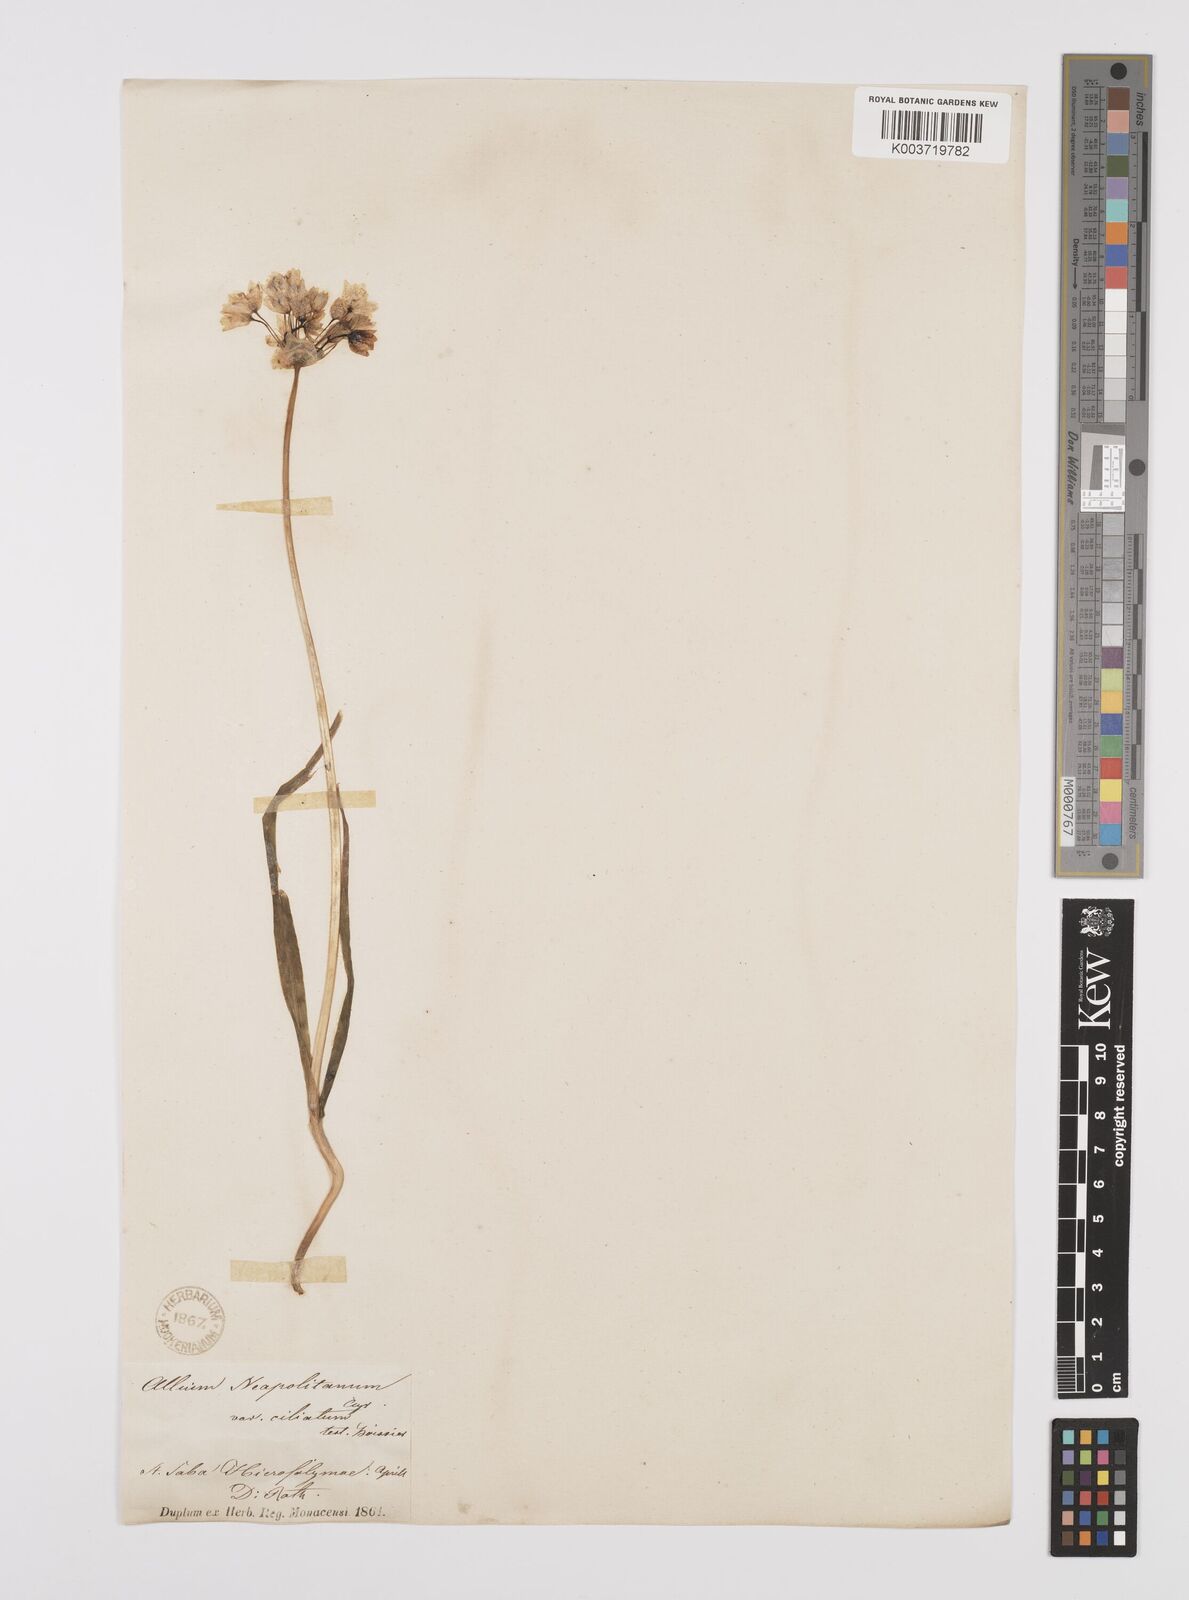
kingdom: Plantae
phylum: Tracheophyta
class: Liliopsida
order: Asparagales
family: Amaryllidaceae
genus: Allium
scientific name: Allium neapolitanum
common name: Neapolitan garlic
